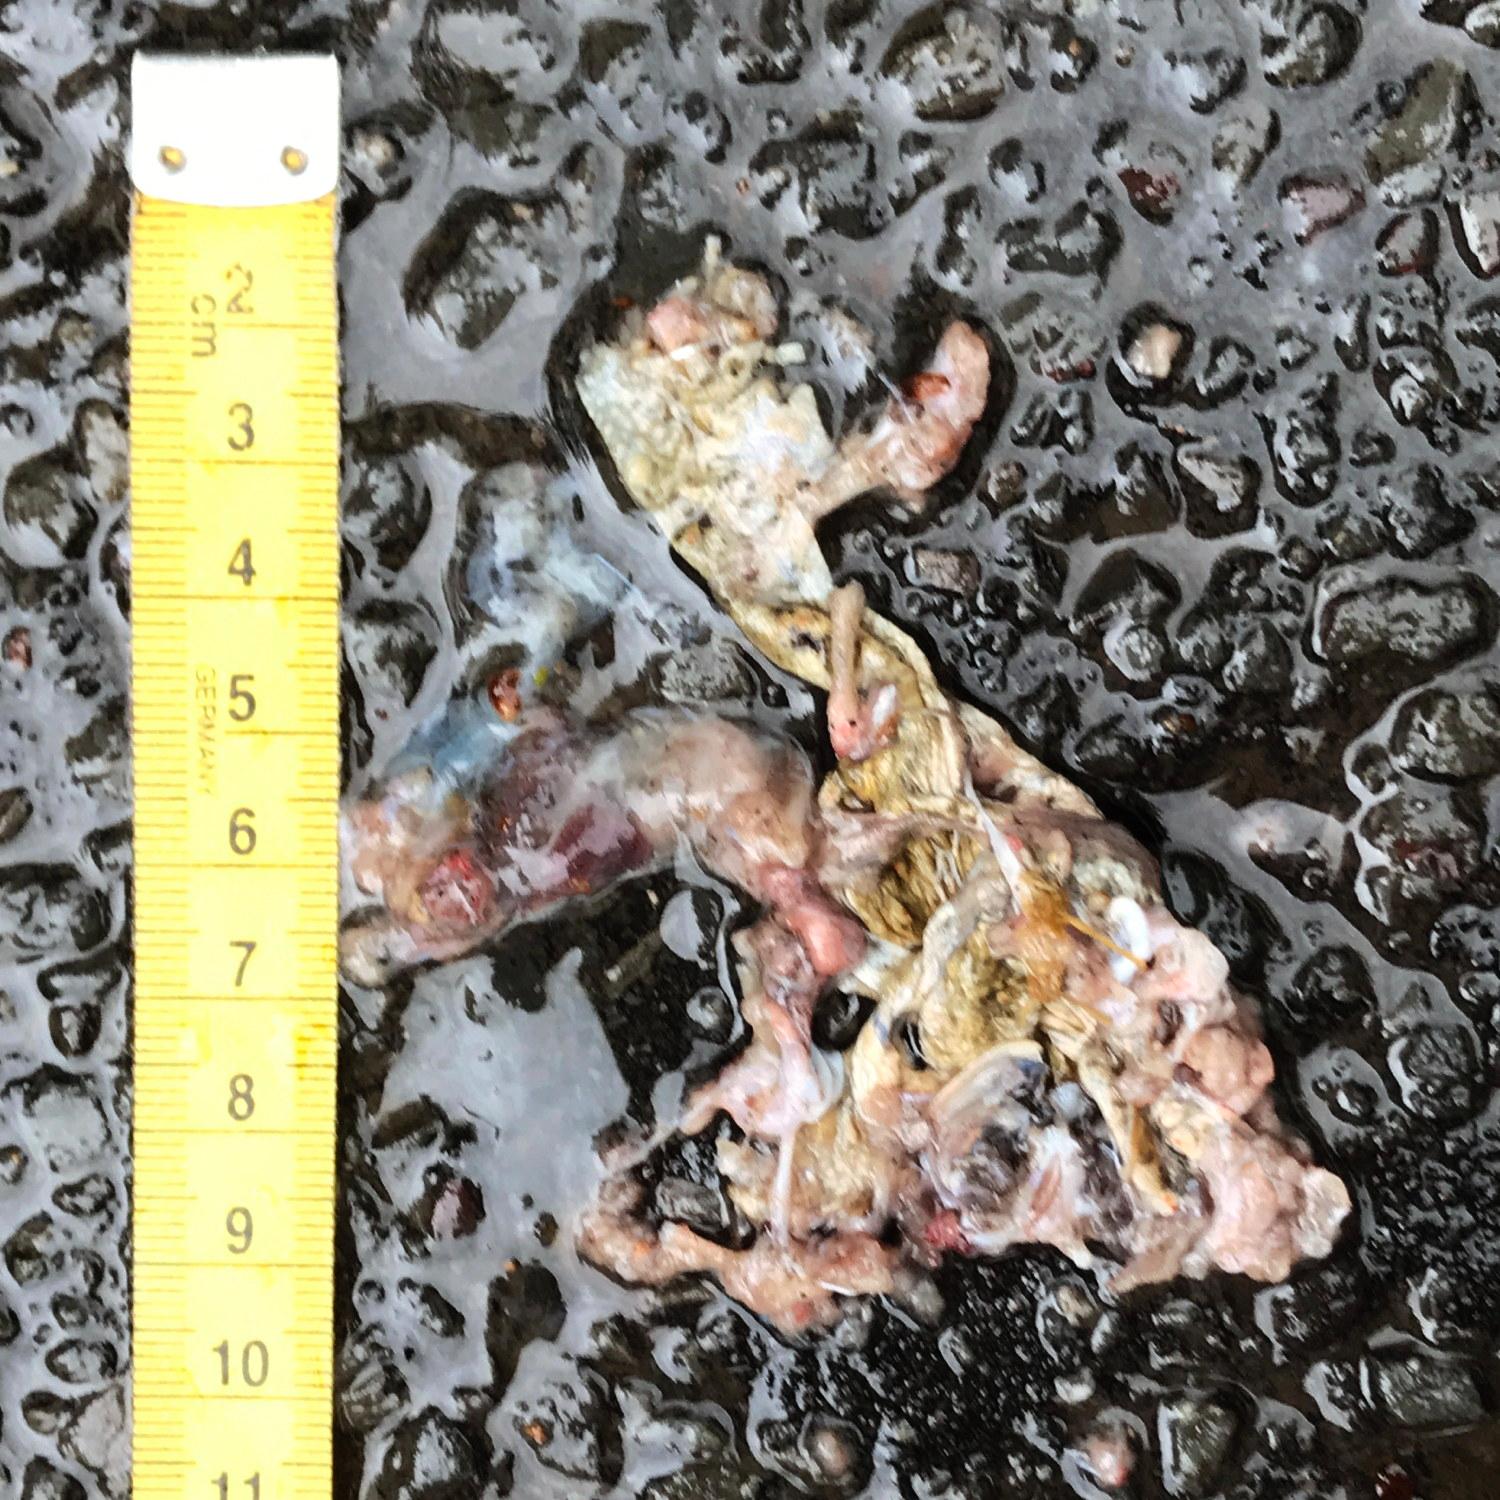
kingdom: Animalia
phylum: Chordata
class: Amphibia
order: Anura
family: Bufonidae
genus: Bufo
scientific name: Bufo bufo
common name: Common toad
